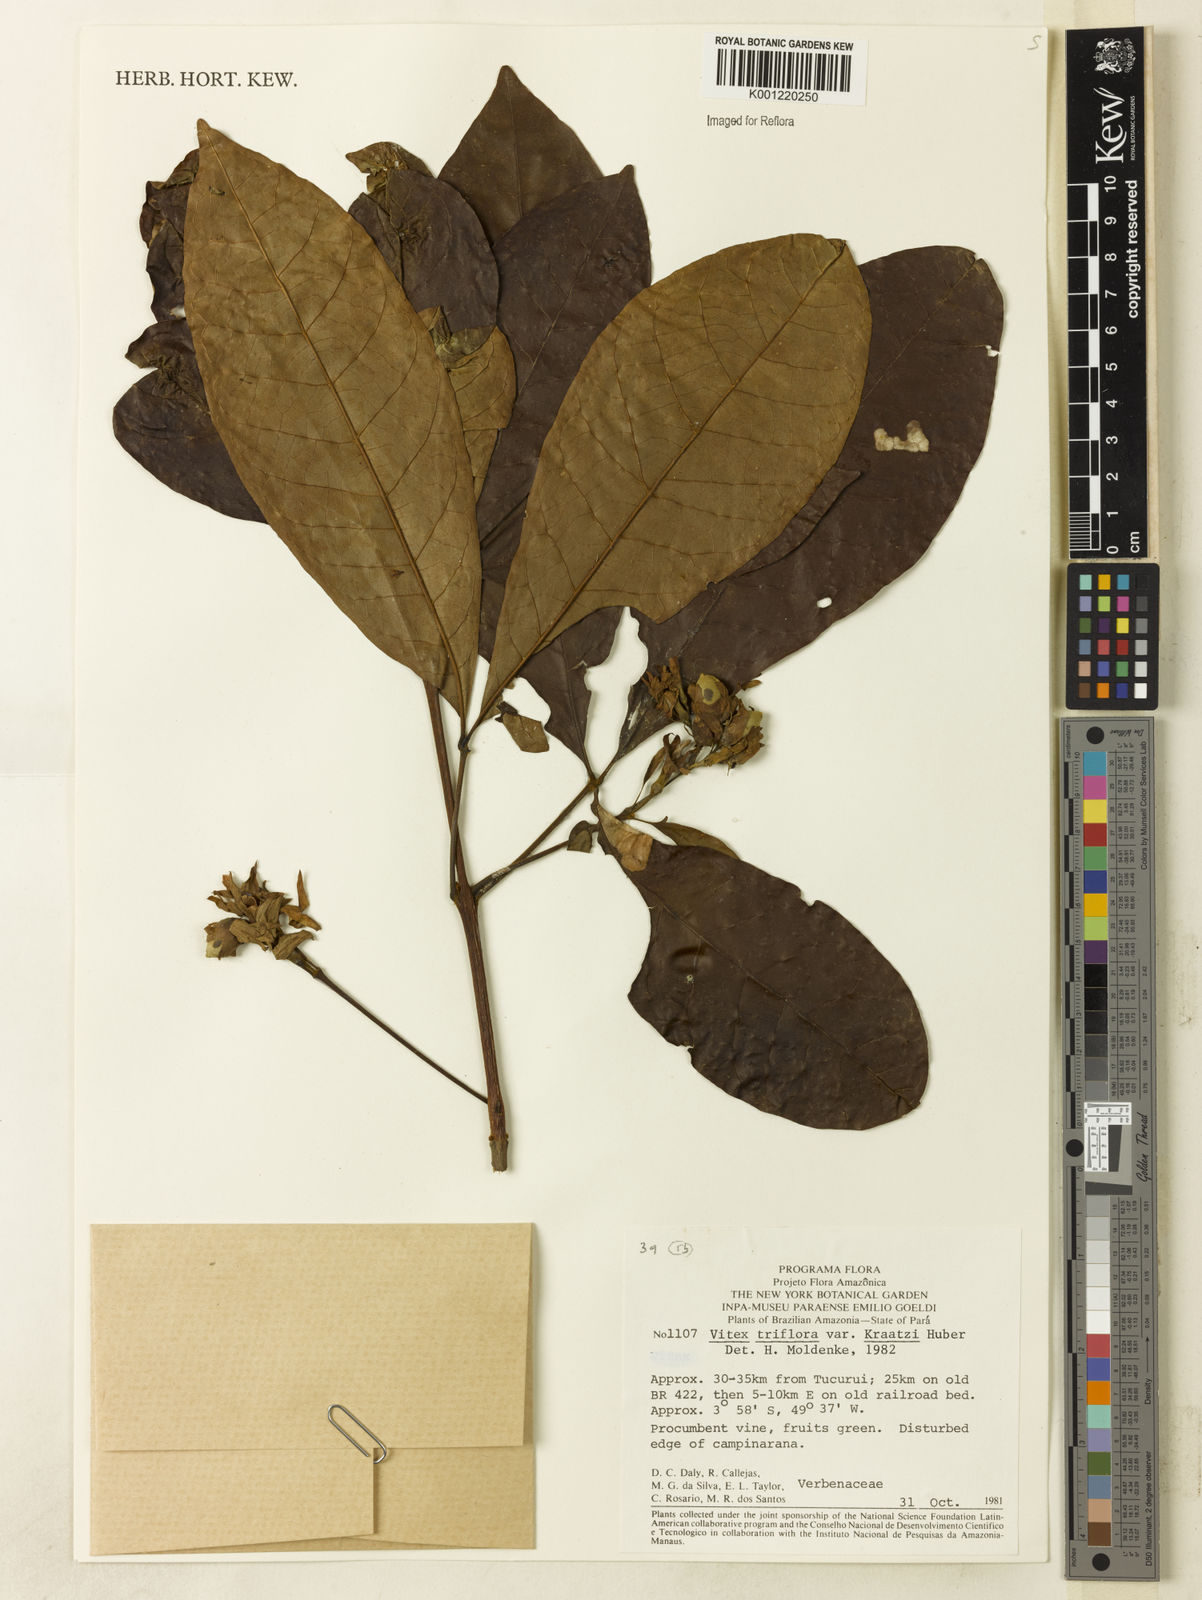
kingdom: Plantae
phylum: Tracheophyta
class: Magnoliopsida
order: Lamiales
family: Lamiaceae
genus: Vitex
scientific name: Vitex triflora
